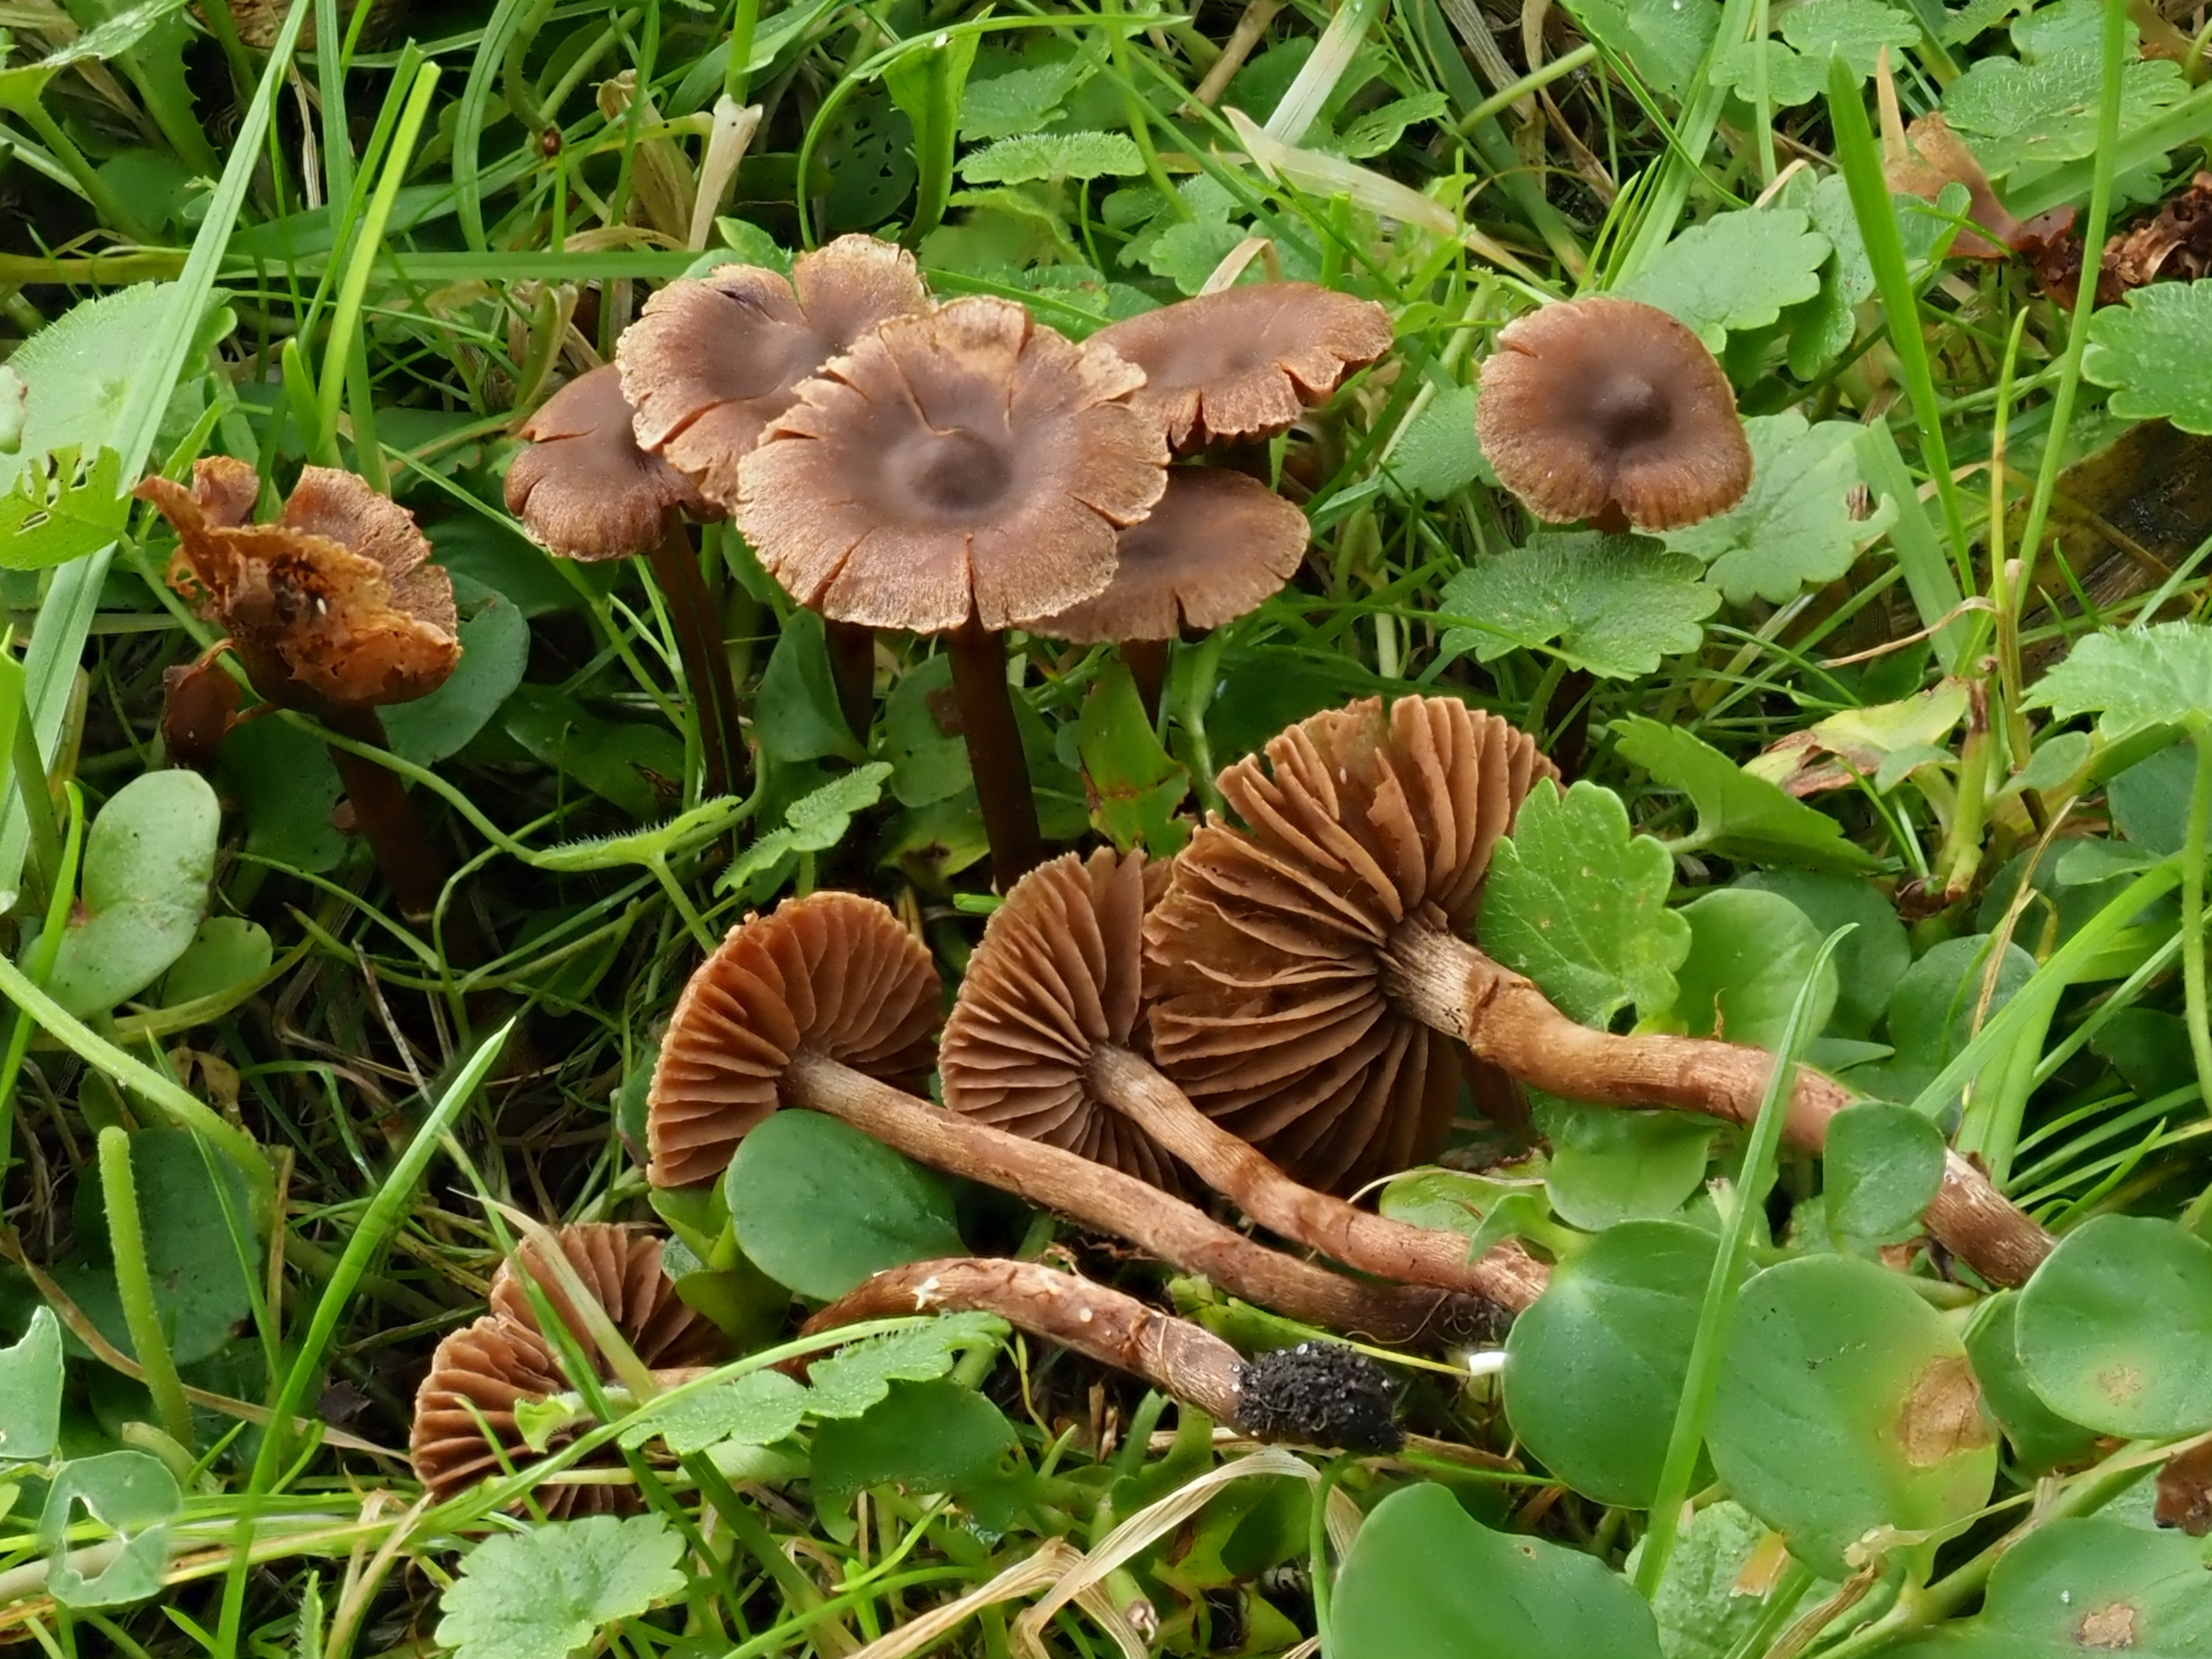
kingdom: Fungi
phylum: Basidiomycota
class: Agaricomycetes
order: Agaricales
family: Cortinariaceae
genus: Cortinarius
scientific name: Cortinarius decipiens
